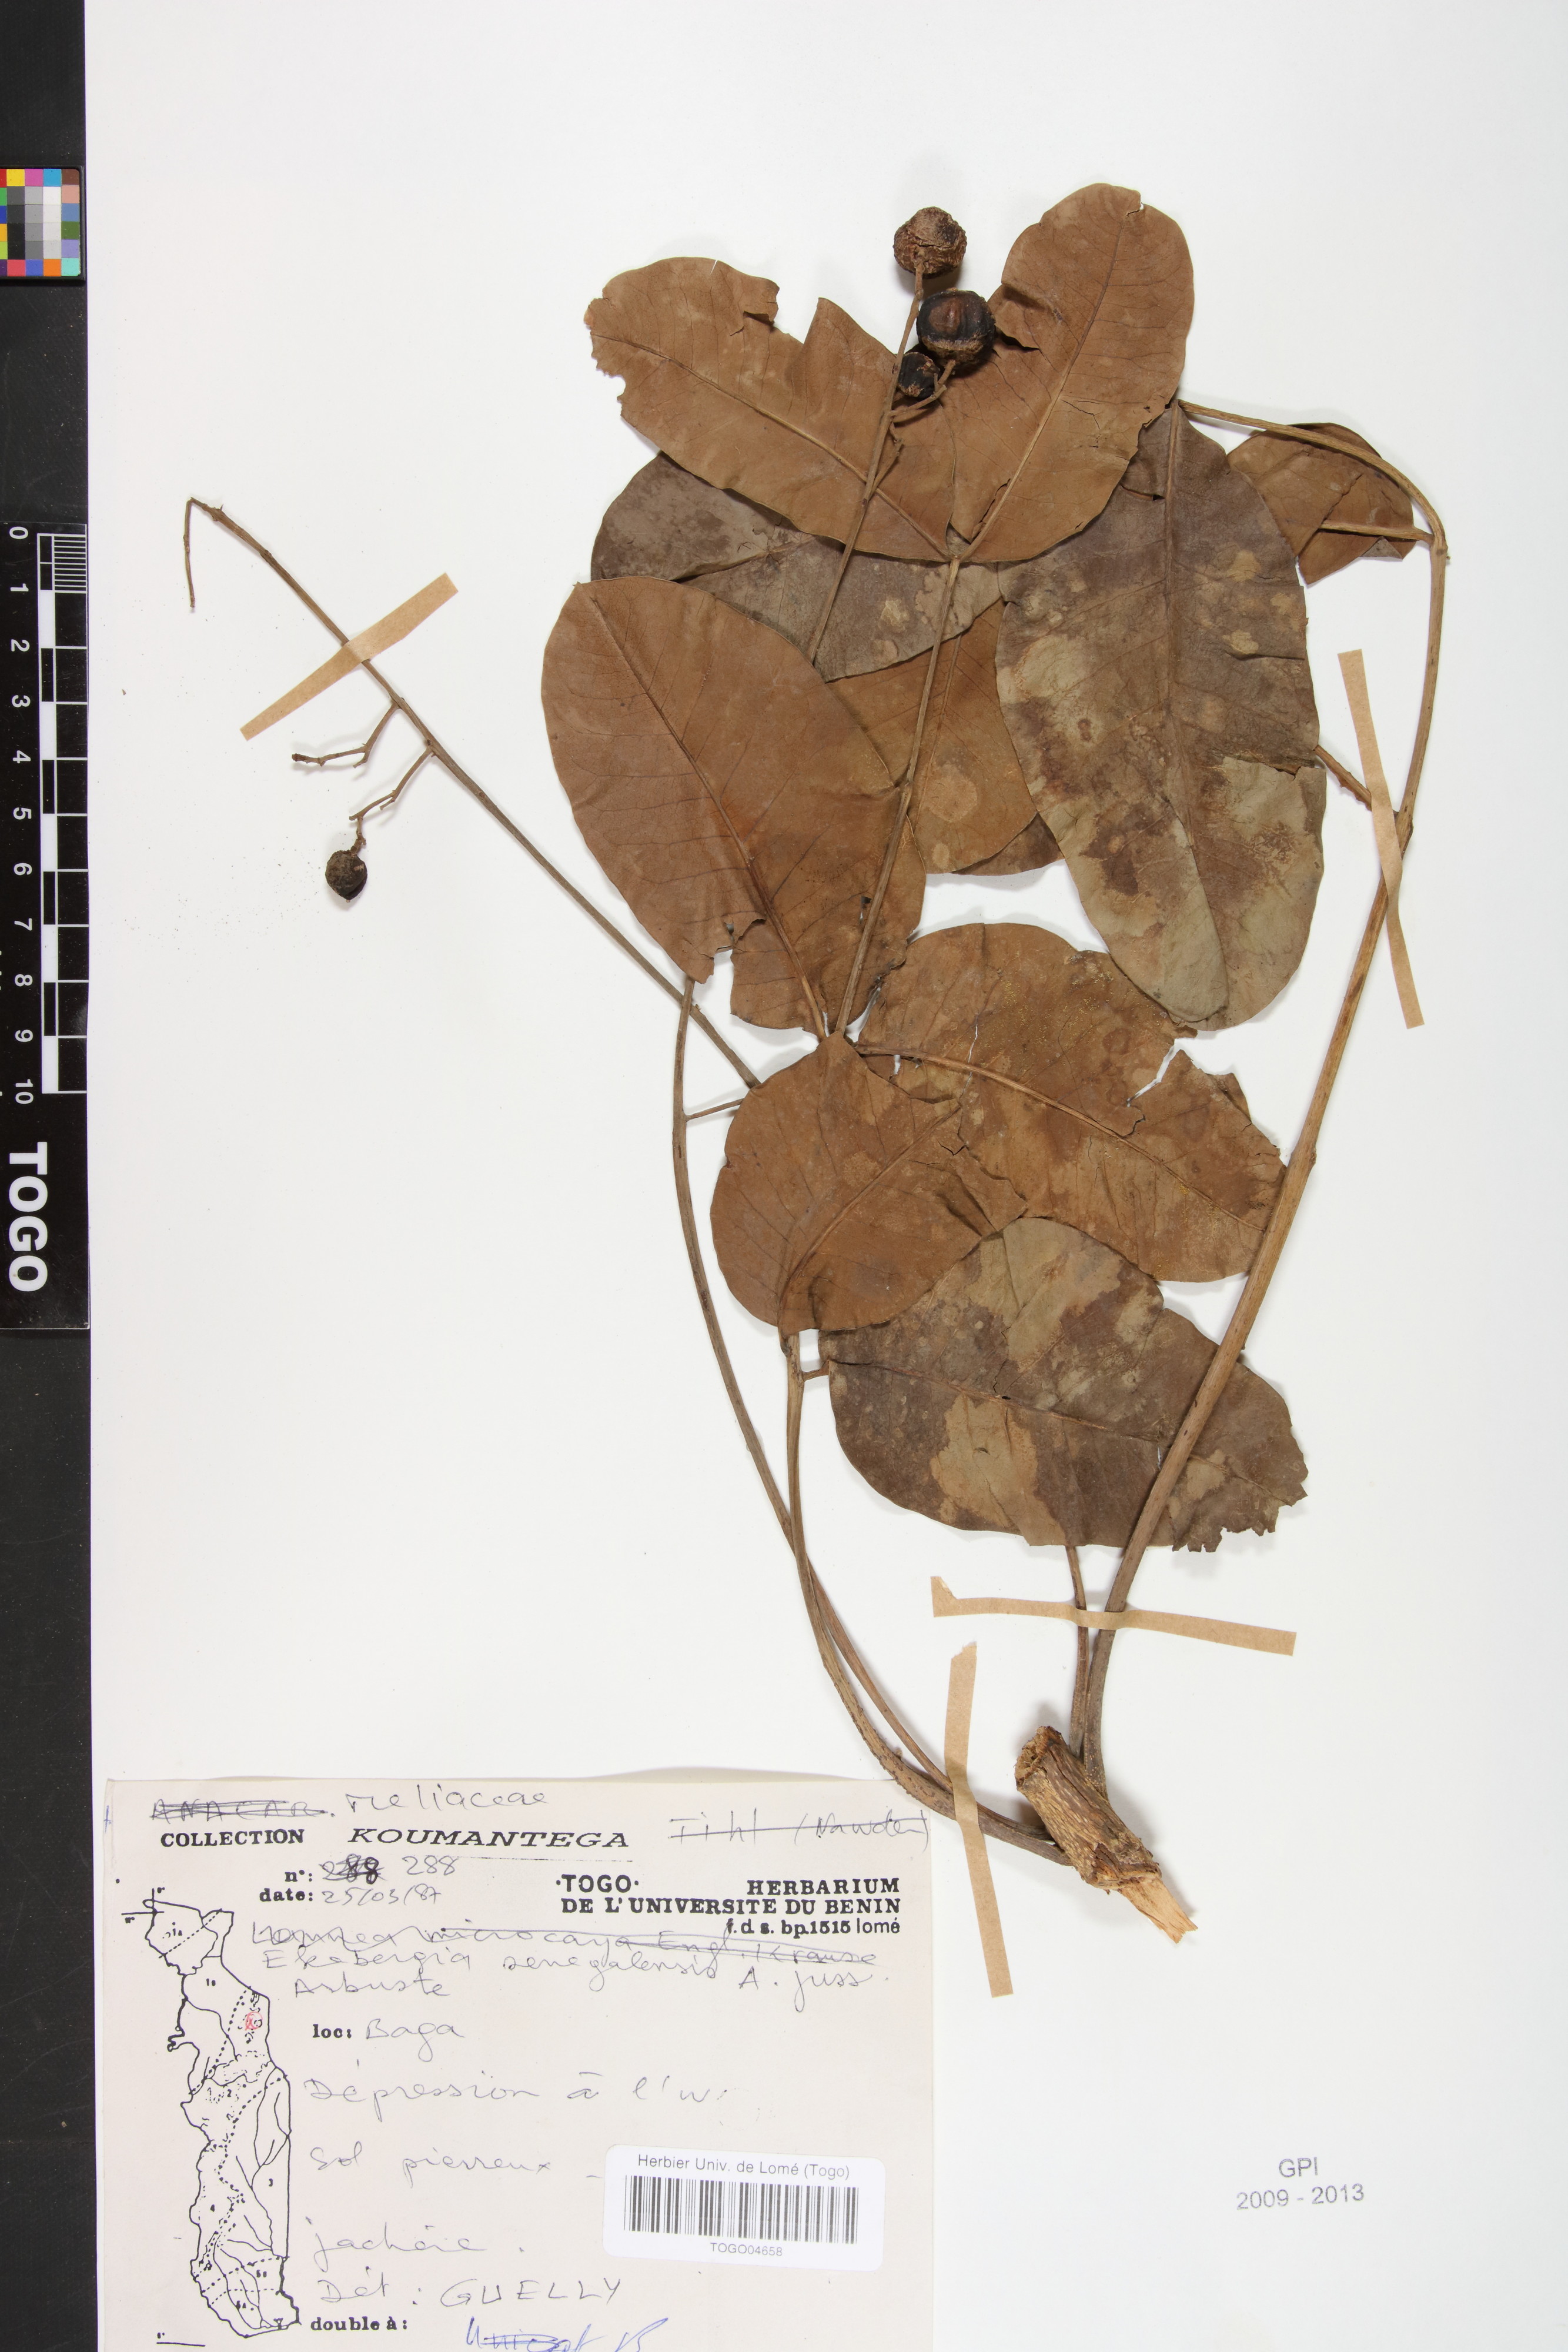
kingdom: Plantae
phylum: Tracheophyta
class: Magnoliopsida
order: Sapindales
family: Meliaceae
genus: Ekebergia
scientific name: Ekebergia capensis
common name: Cape-ash
